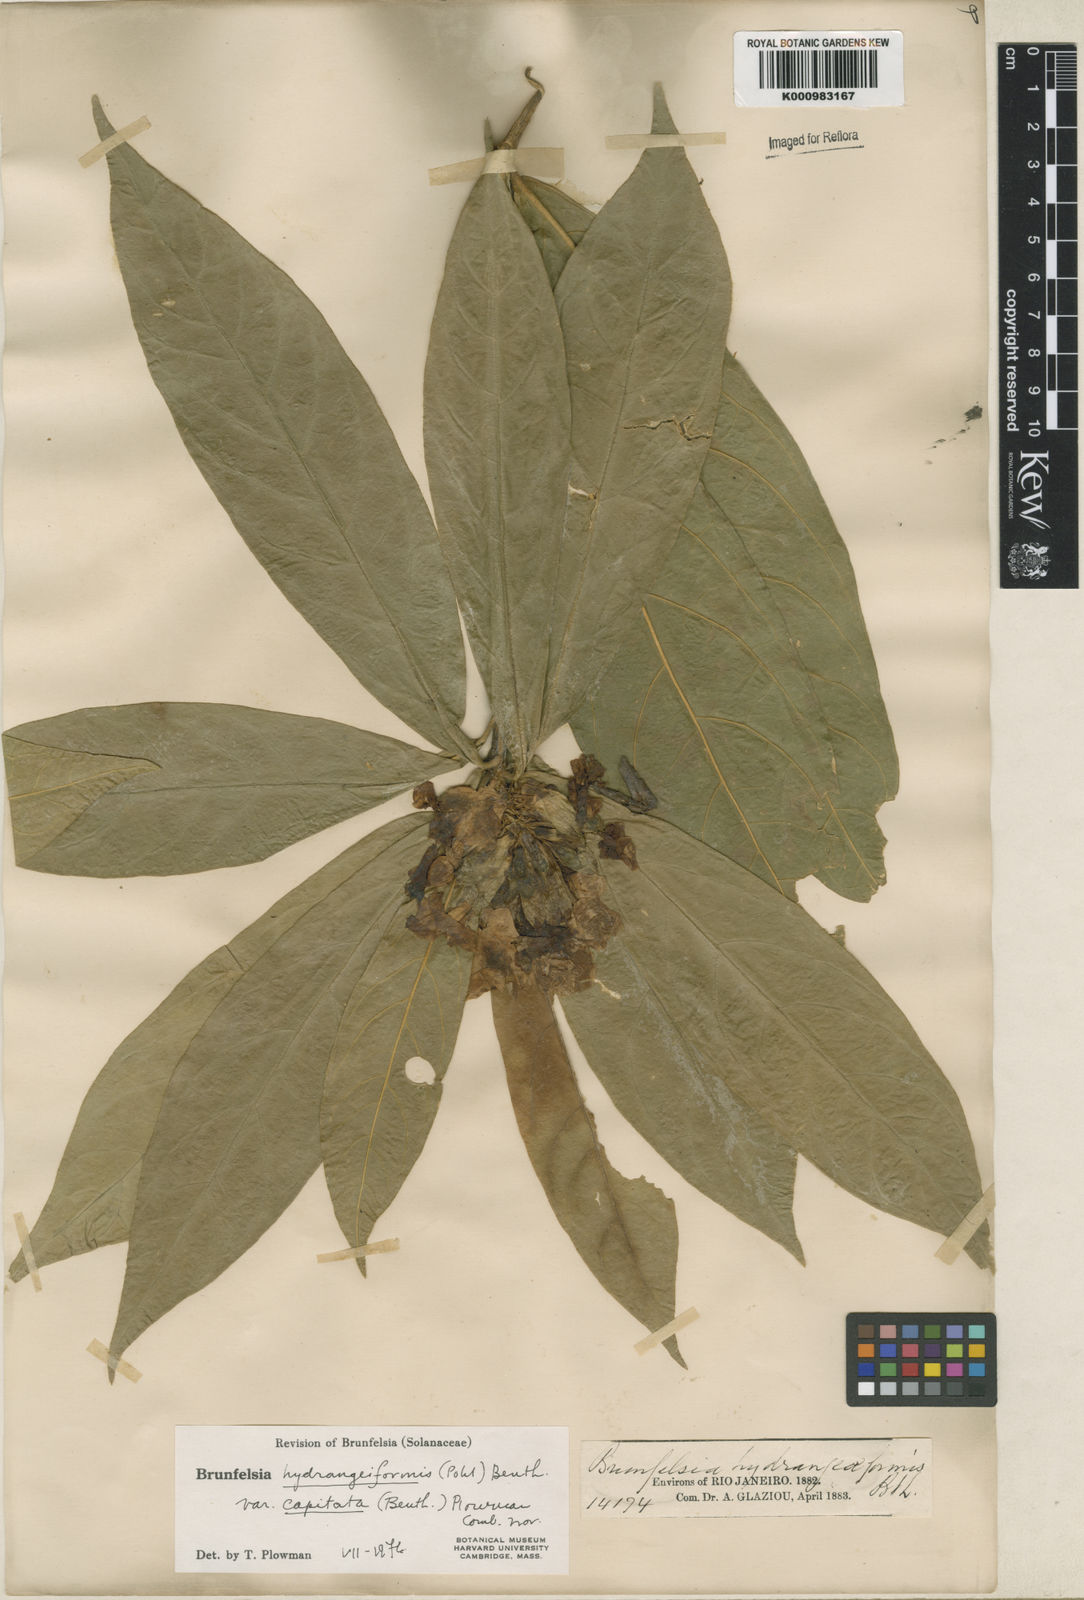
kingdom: Plantae
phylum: Tracheophyta
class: Magnoliopsida
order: Solanales
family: Solanaceae
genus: Solanum
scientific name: Solanum
